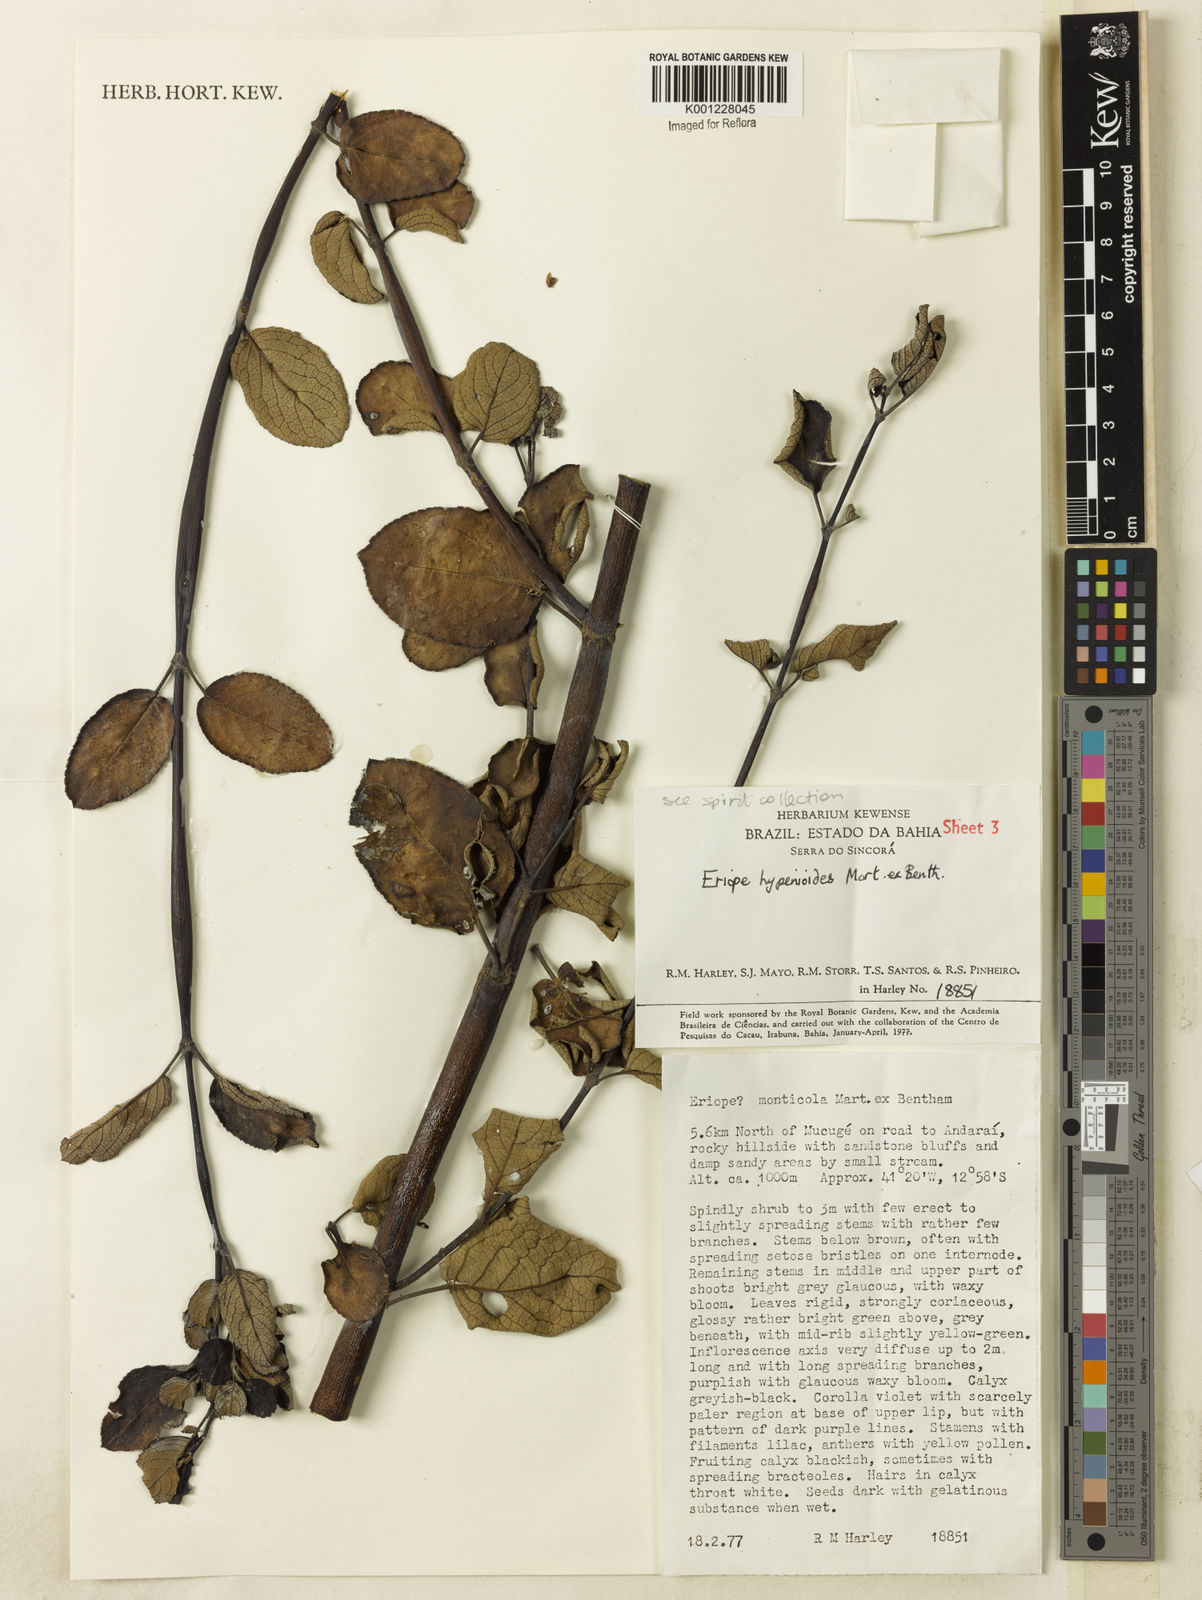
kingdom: Plantae
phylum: Tracheophyta
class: Magnoliopsida
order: Lamiales
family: Lamiaceae
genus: Eriope
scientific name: Eriope hypenioides
